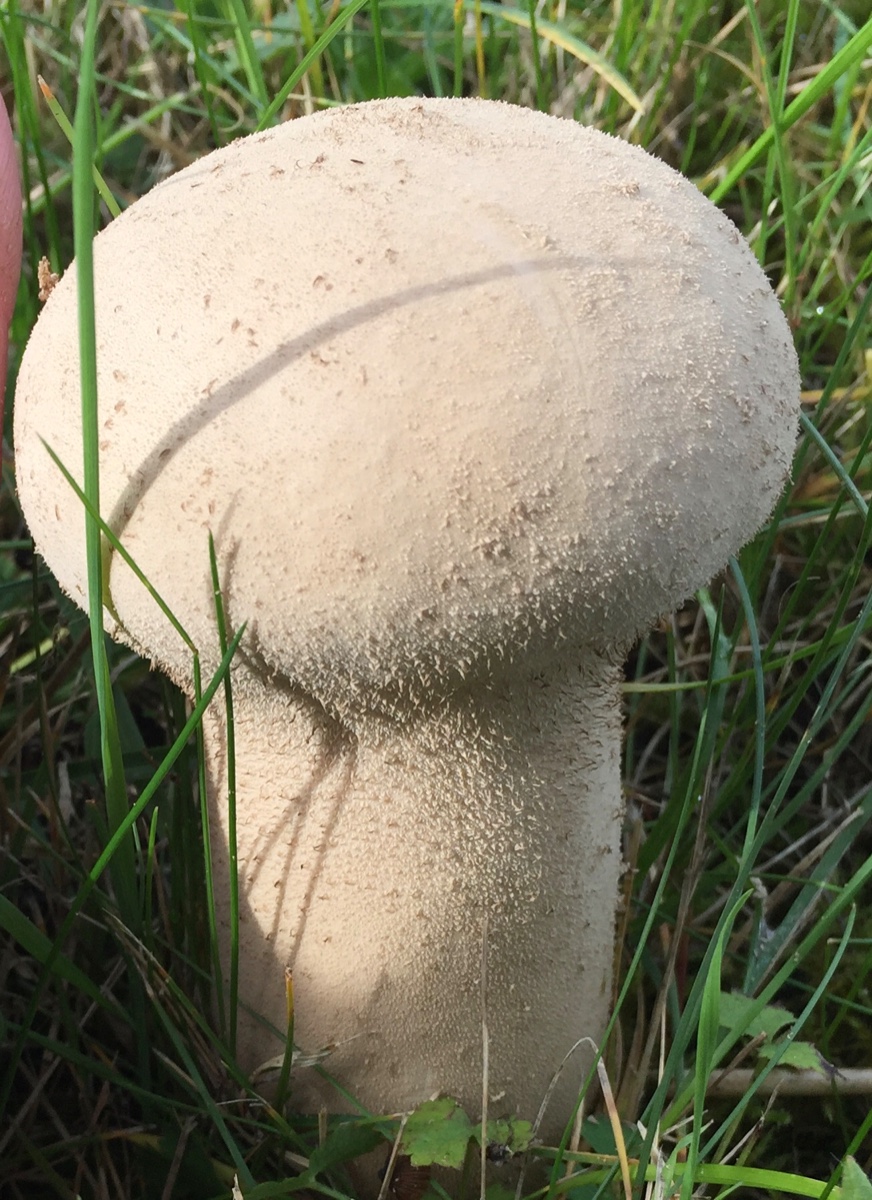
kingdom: Fungi
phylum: Basidiomycota
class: Agaricomycetes
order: Agaricales
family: Lycoperdaceae
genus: Lycoperdon
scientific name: Lycoperdon excipuliforme
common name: højstokket støvbold
